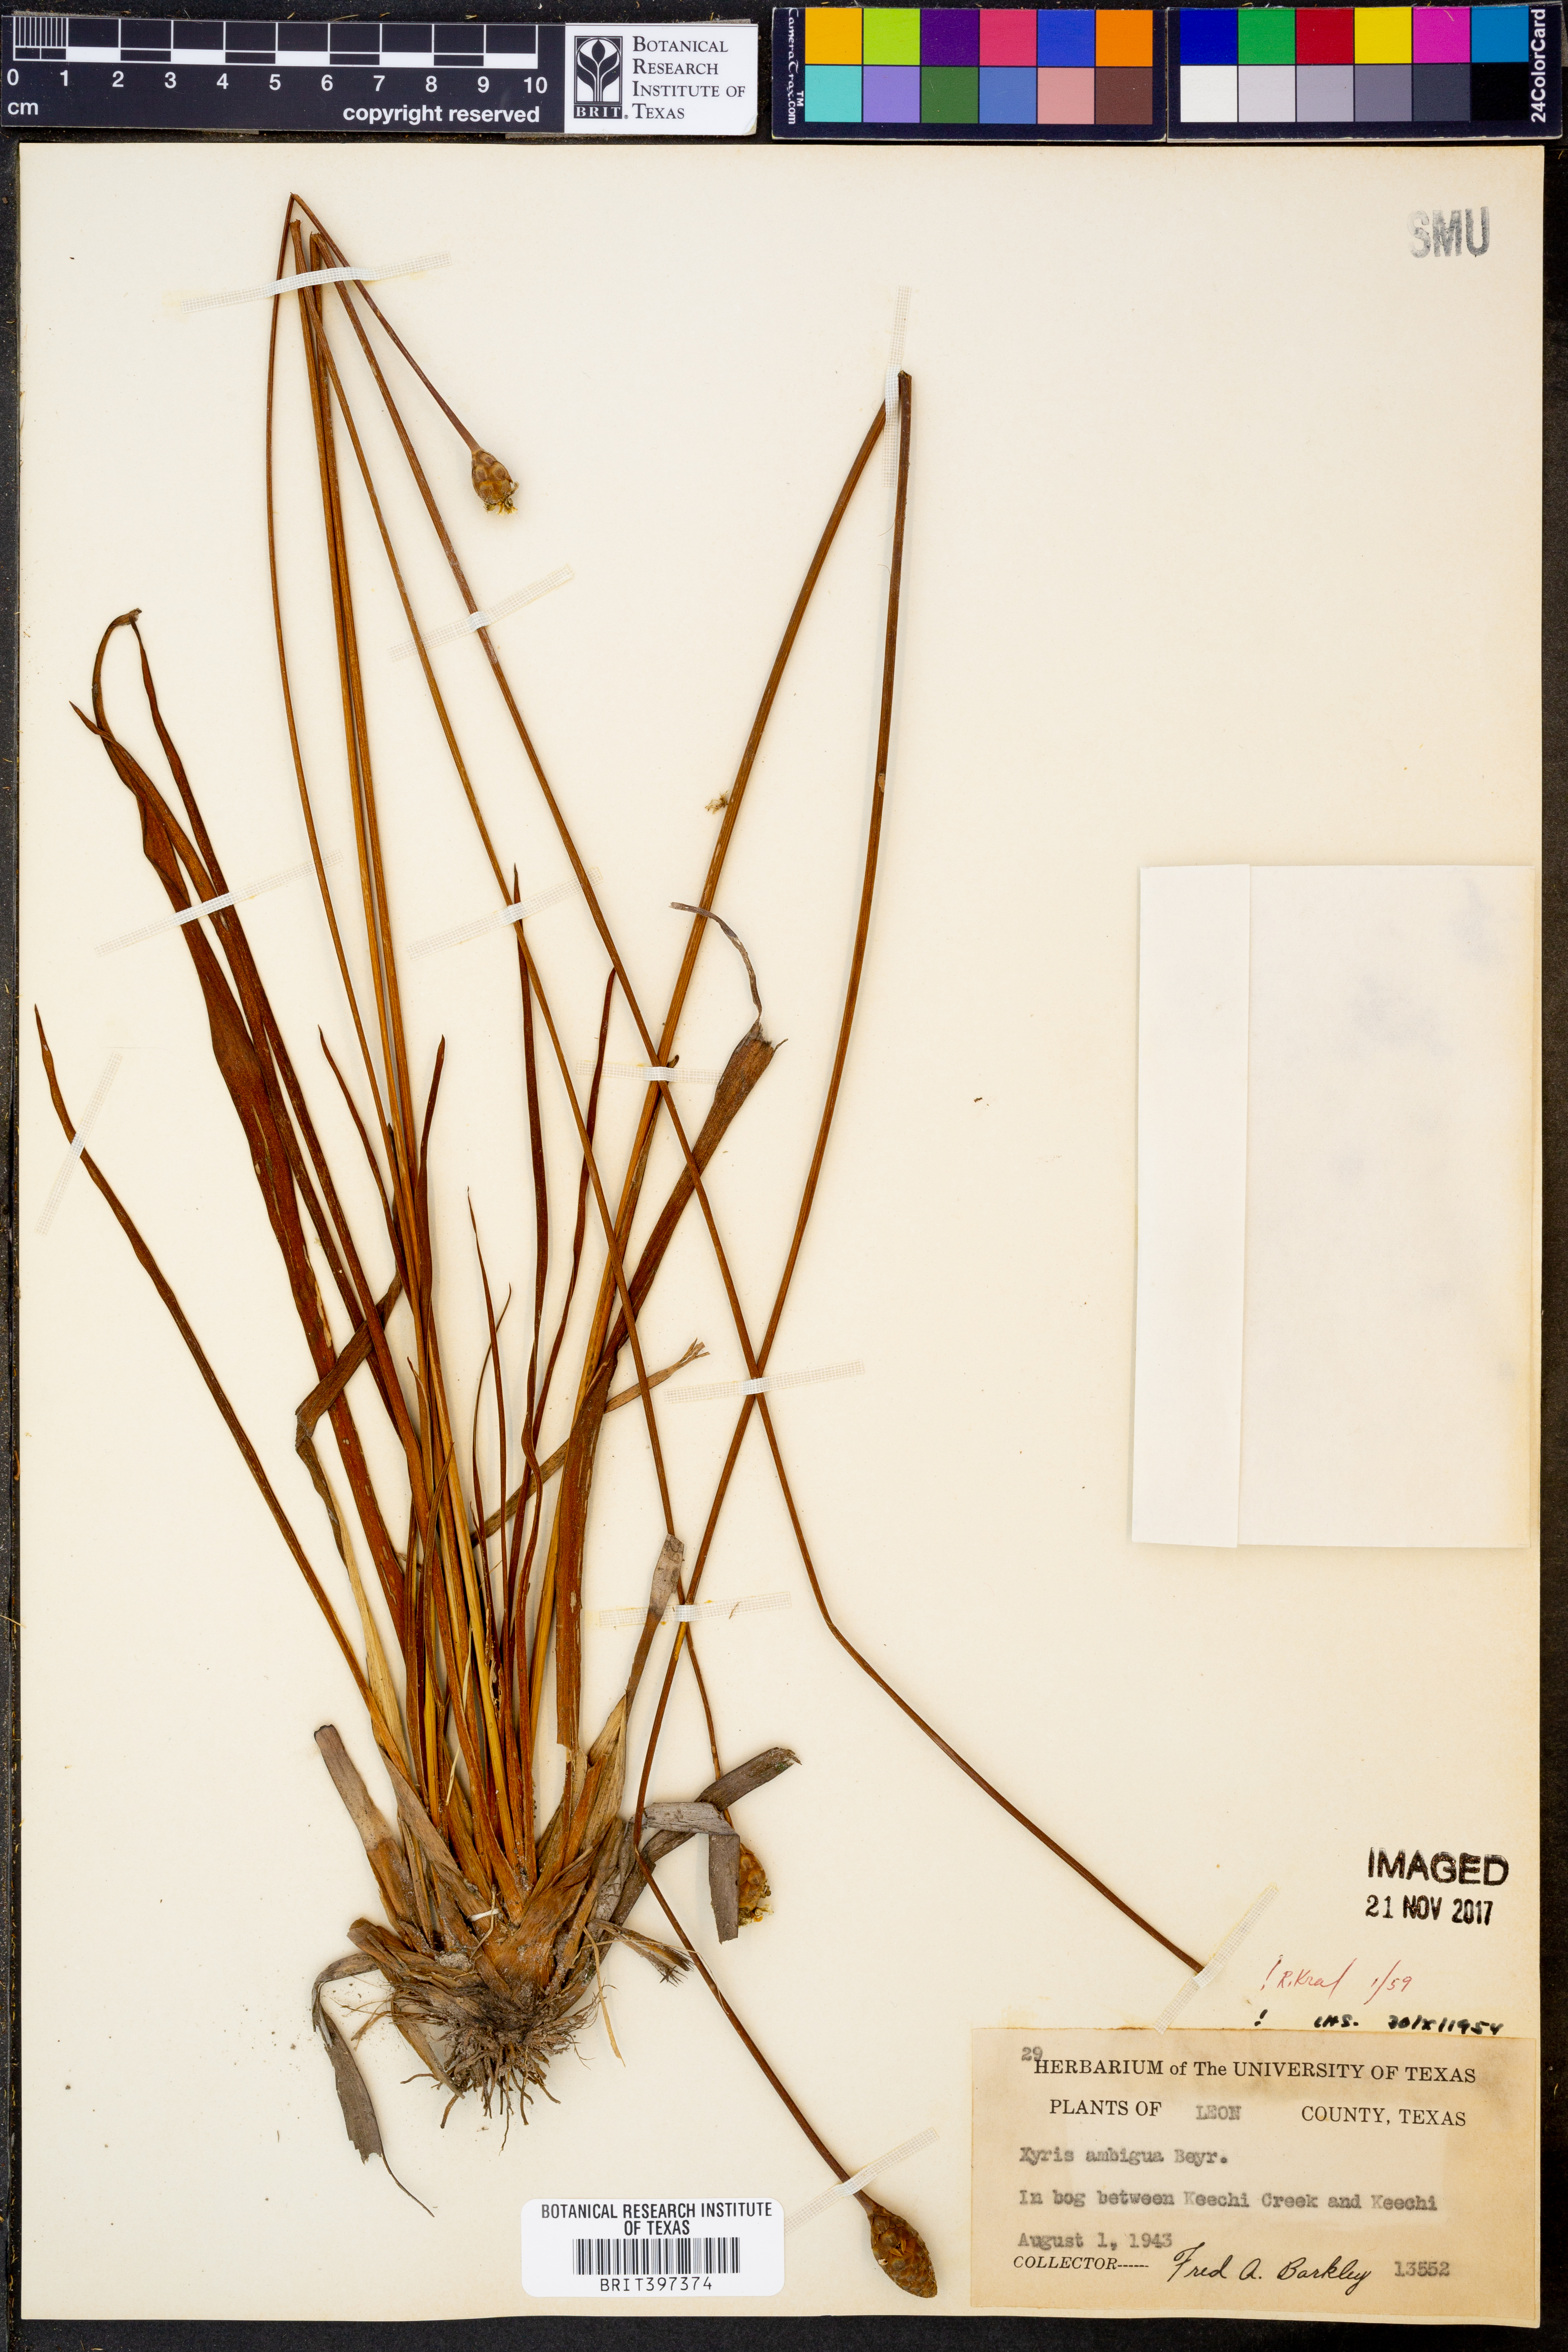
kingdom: Plantae
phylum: Tracheophyta
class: Liliopsida
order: Poales
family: Xyridaceae
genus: Xyris
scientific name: Xyris ambigua
